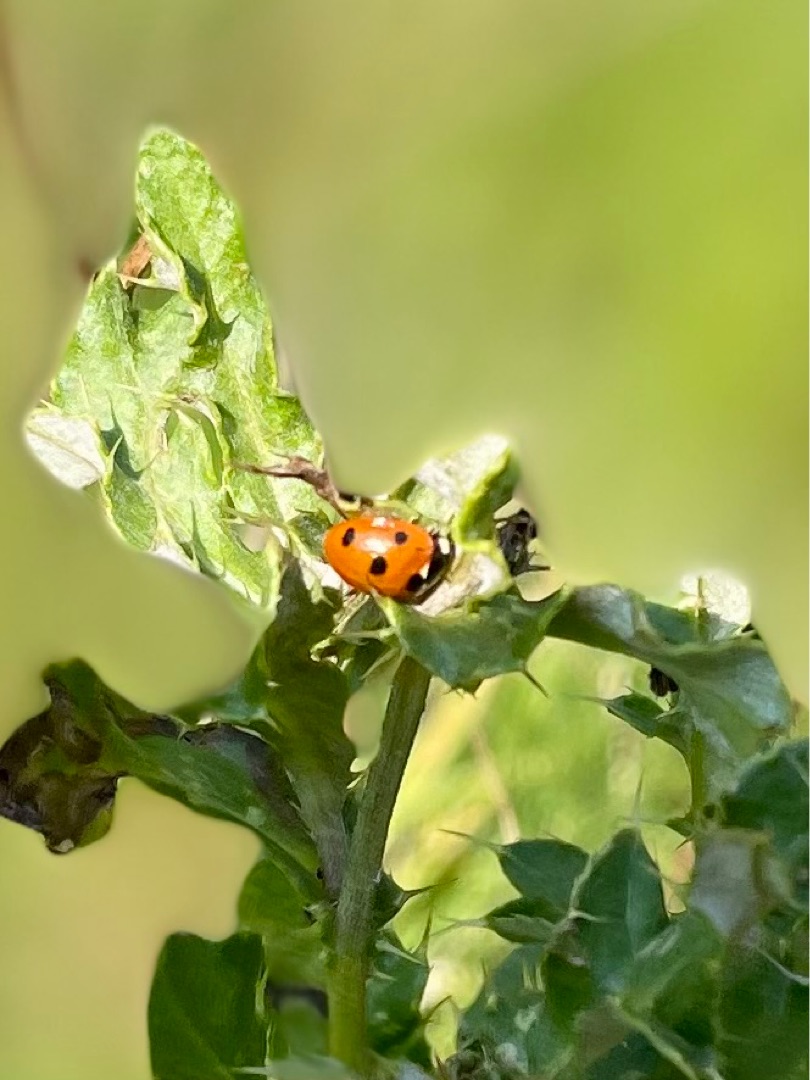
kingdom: Animalia
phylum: Arthropoda
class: Insecta
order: Coleoptera
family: Coccinellidae
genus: Coccinella
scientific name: Coccinella septempunctata
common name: Syvplettet mariehøne
